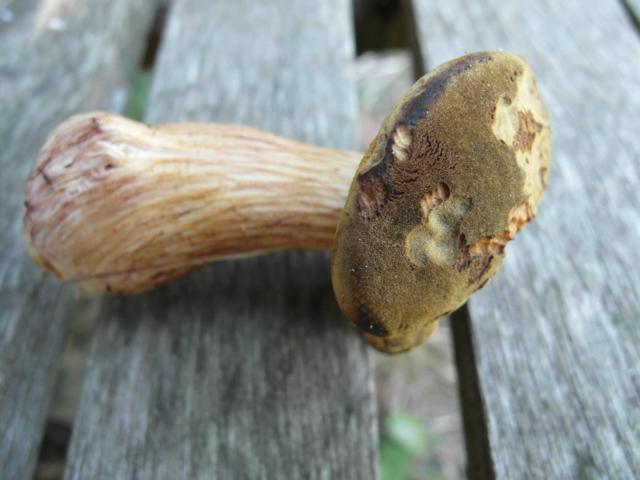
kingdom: Fungi
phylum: Basidiomycota
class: Agaricomycetes
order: Boletales
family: Boletaceae
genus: Xerocomus
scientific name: Xerocomus ferrugineus
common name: vaskeskinds-rørhat
